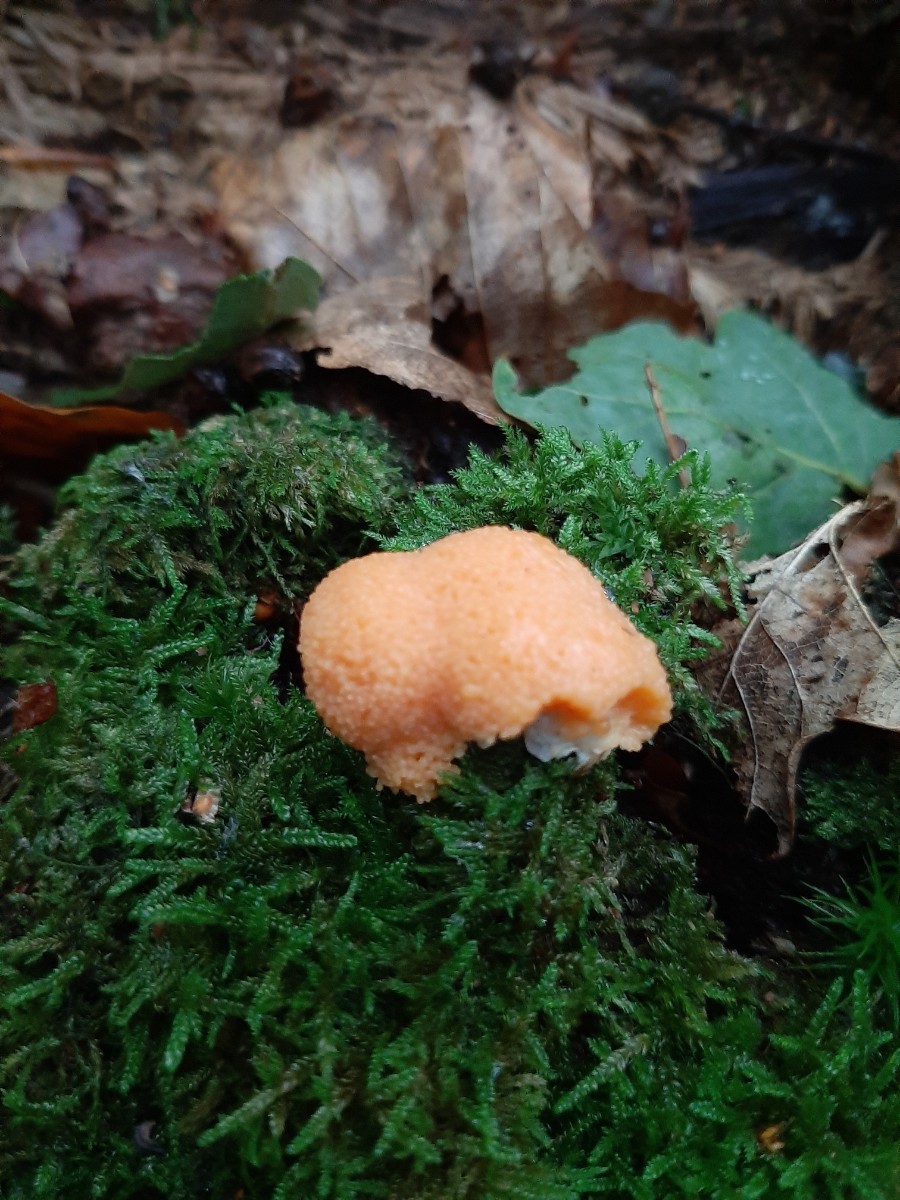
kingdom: Protozoa
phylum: Mycetozoa
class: Myxomycetes
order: Cribrariales
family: Tubiferaceae
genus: Tubifera
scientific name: Tubifera ferruginosa
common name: kanel-støvrør
